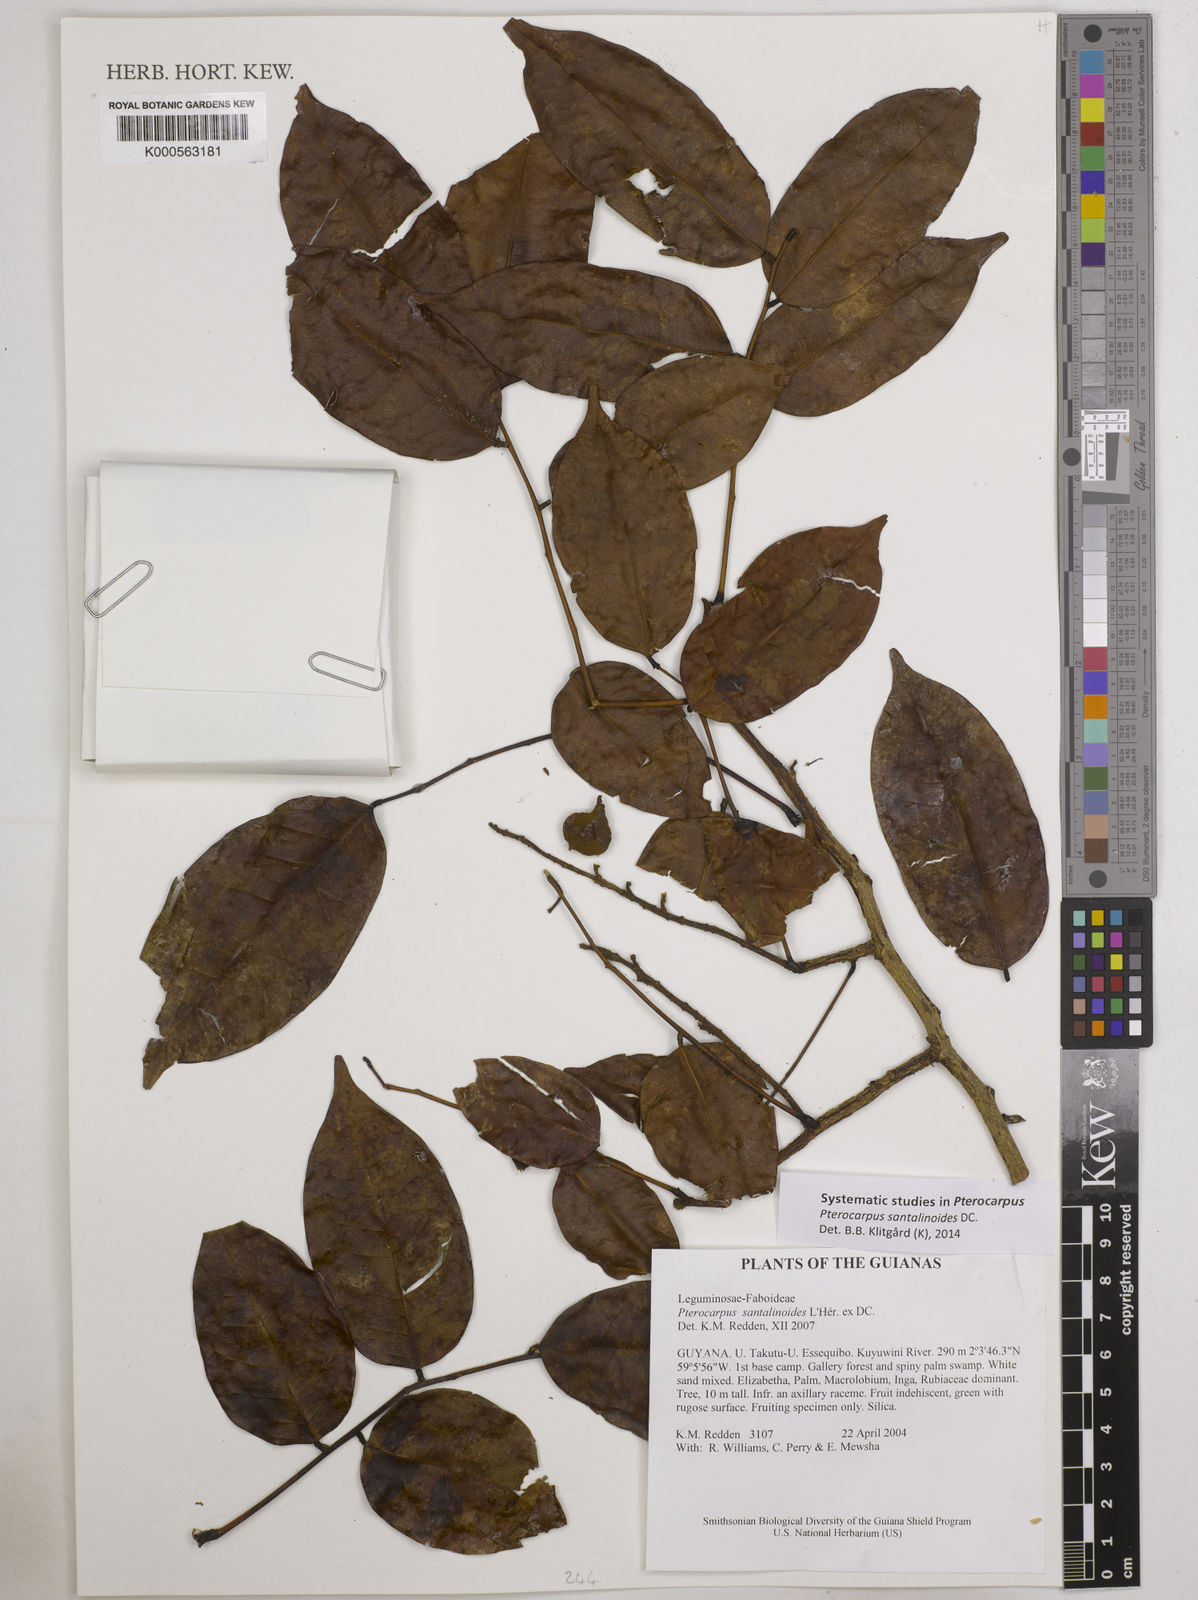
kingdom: Plantae
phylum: Tracheophyta
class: Magnoliopsida
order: Fabales
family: Fabaceae
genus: Pterocarpus
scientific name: Pterocarpus santalinoides
